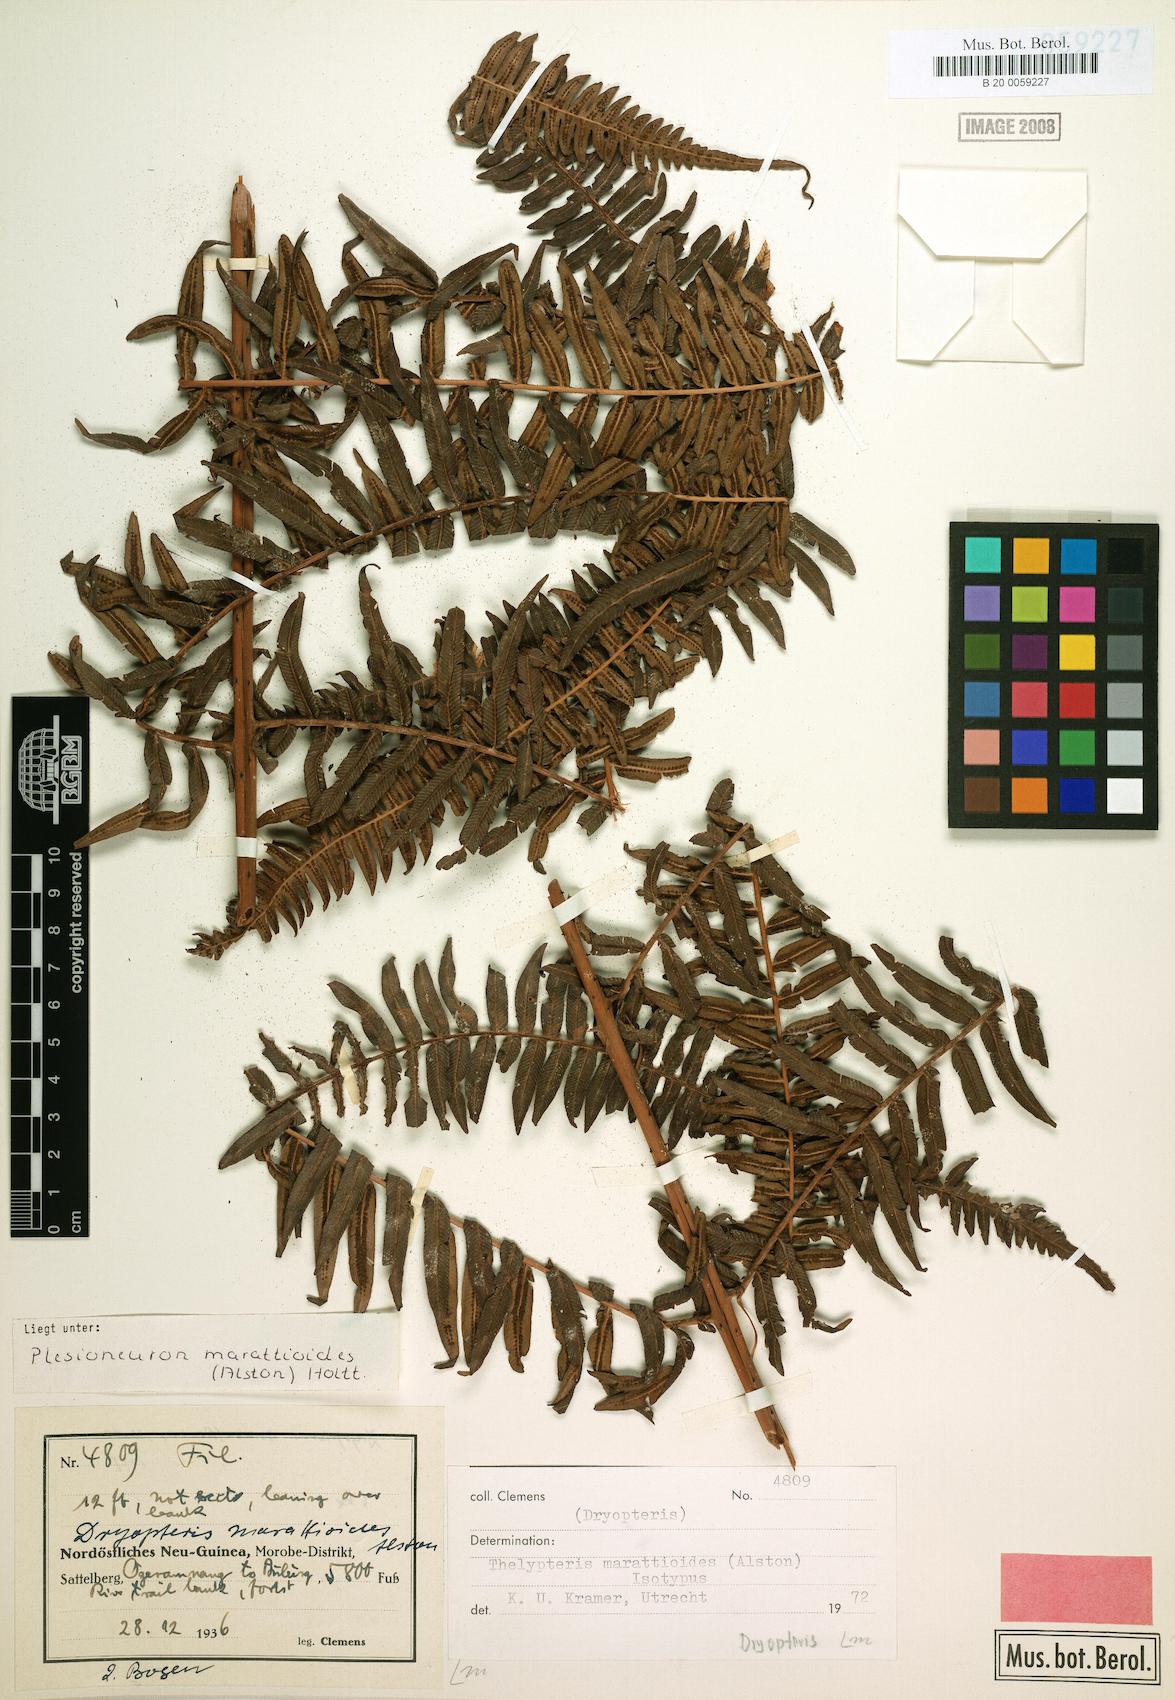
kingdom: Plantae
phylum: Tracheophyta
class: Polypodiopsida
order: Polypodiales
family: Thelypteridaceae
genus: Chingia
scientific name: Chingia marattioides
